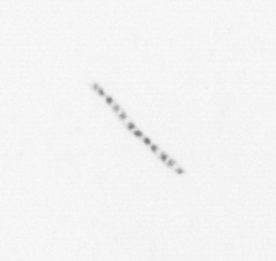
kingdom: Chromista
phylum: Ochrophyta
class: Bacillariophyceae
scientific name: Bacillariophyceae
